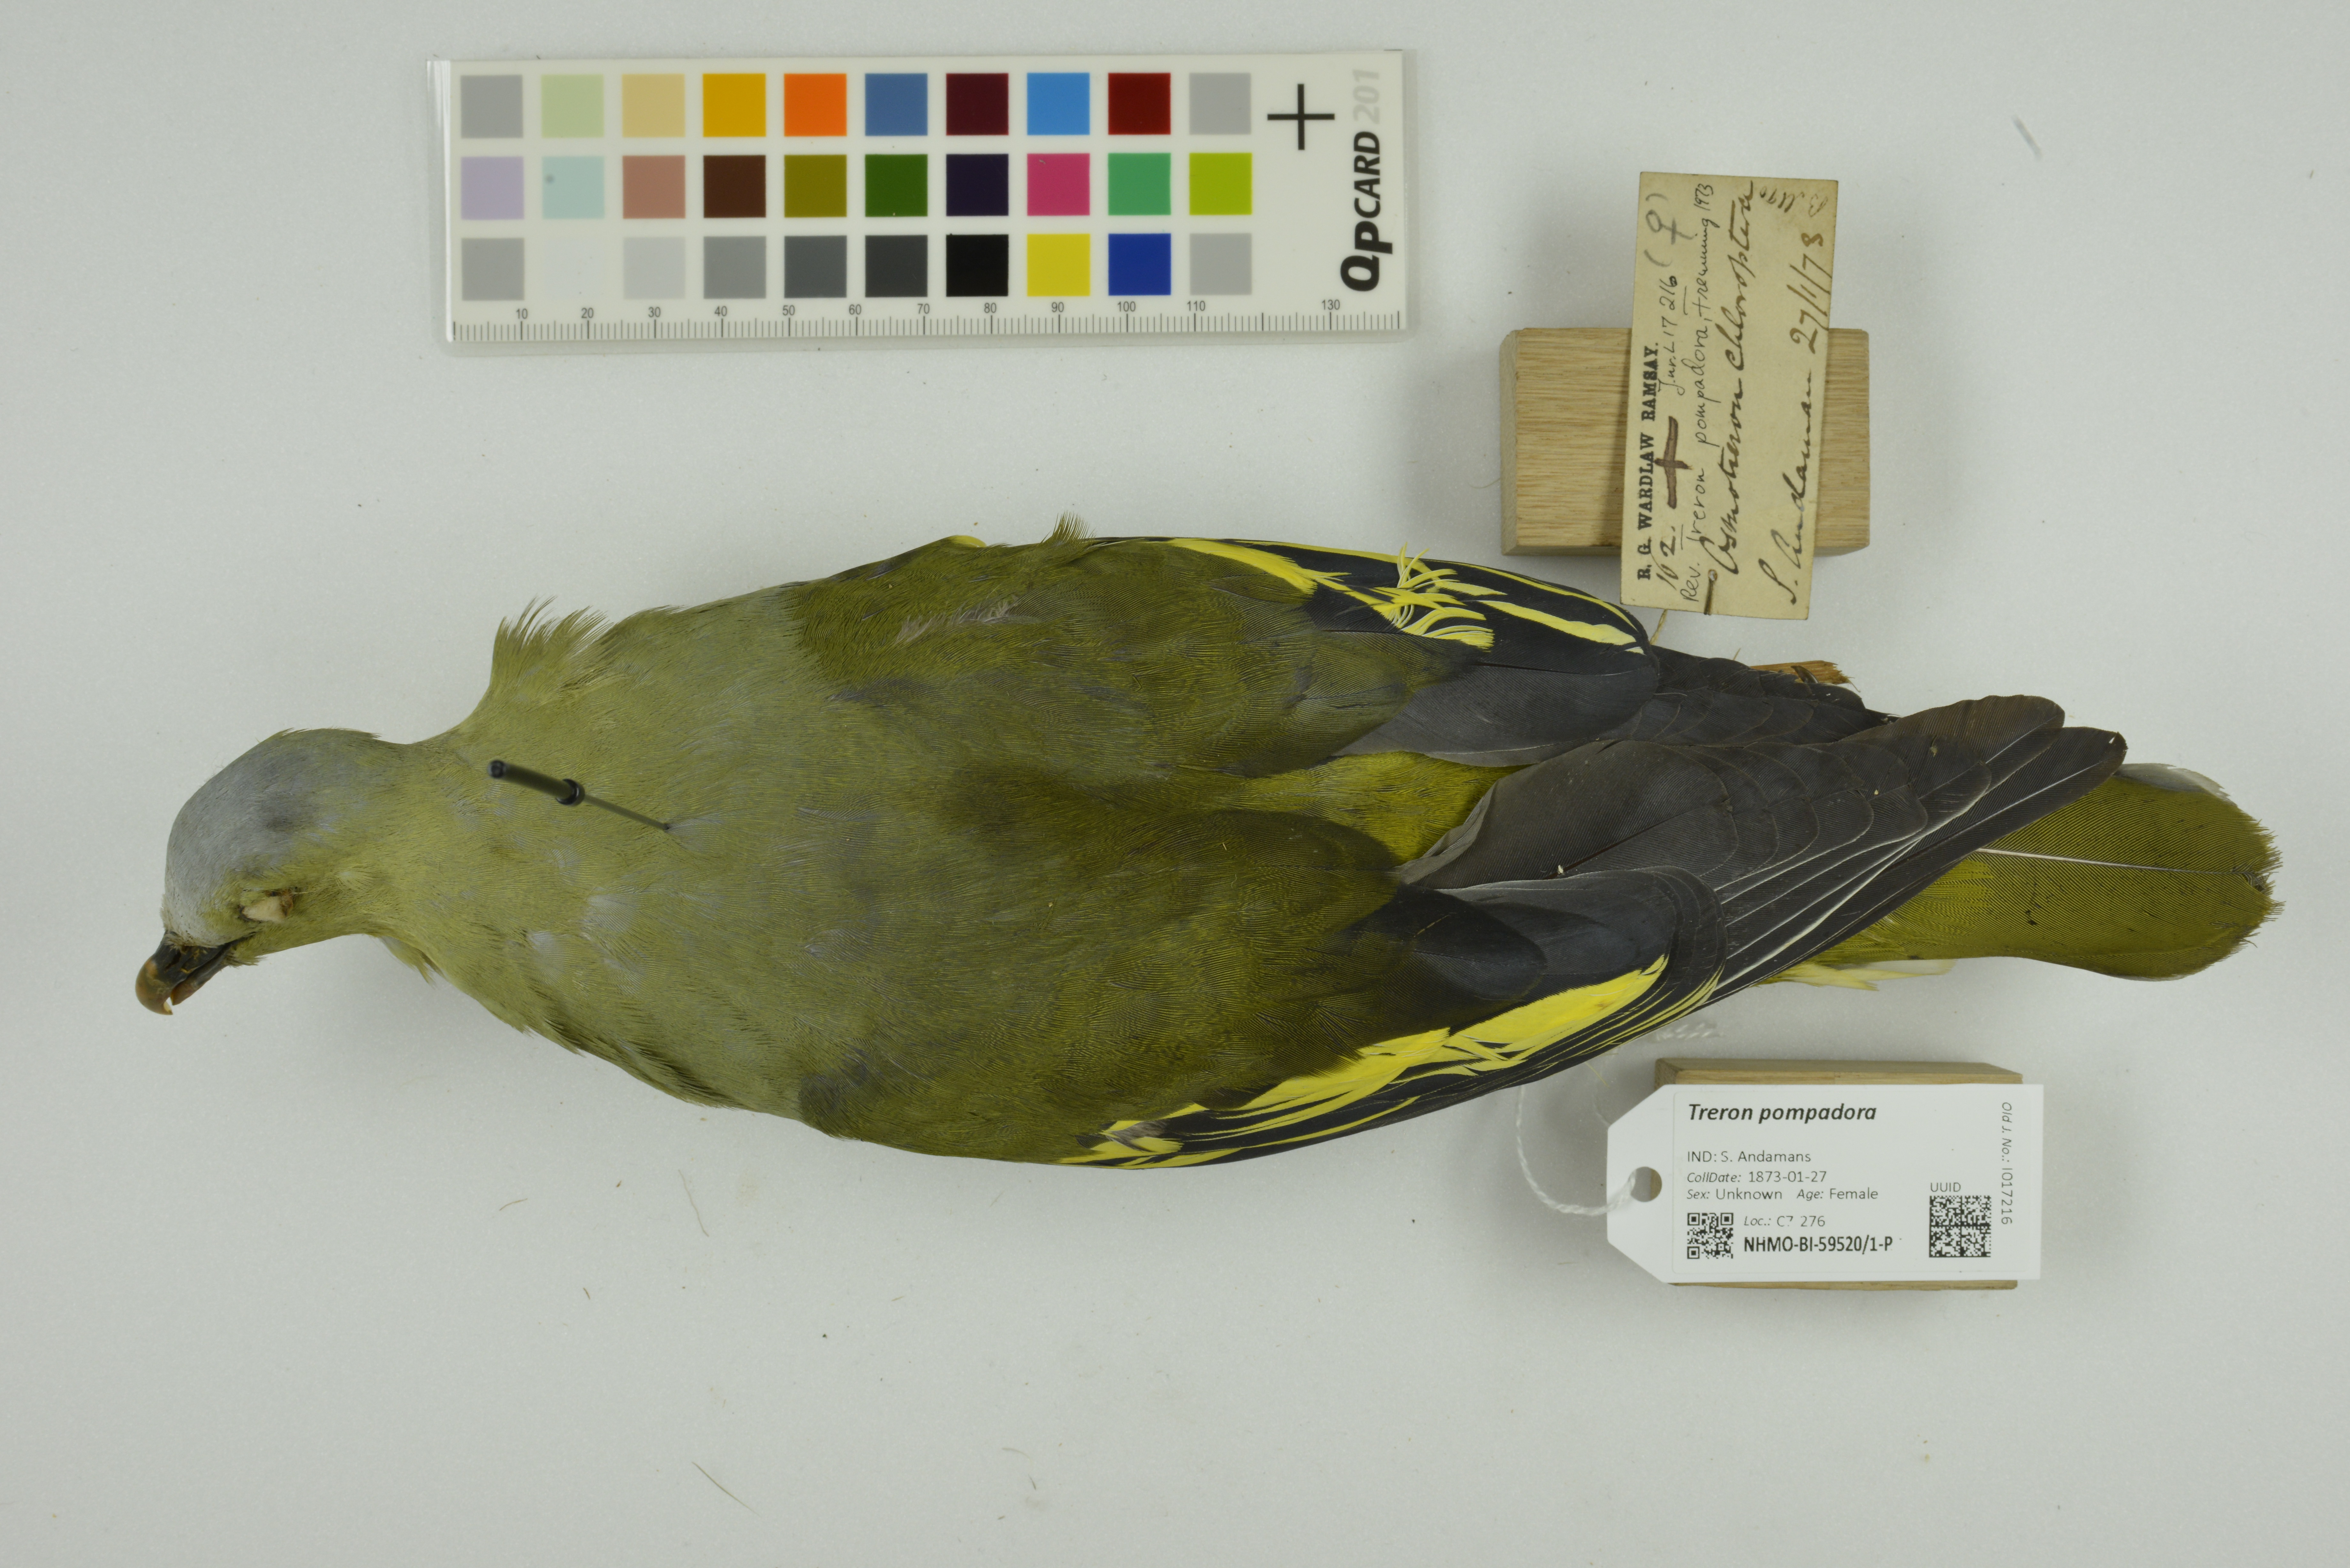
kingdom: Animalia
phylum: Chordata
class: Aves
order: Columbiformes
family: Columbidae
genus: Treron
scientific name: Treron pompadora
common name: Pompadour green pigeon
